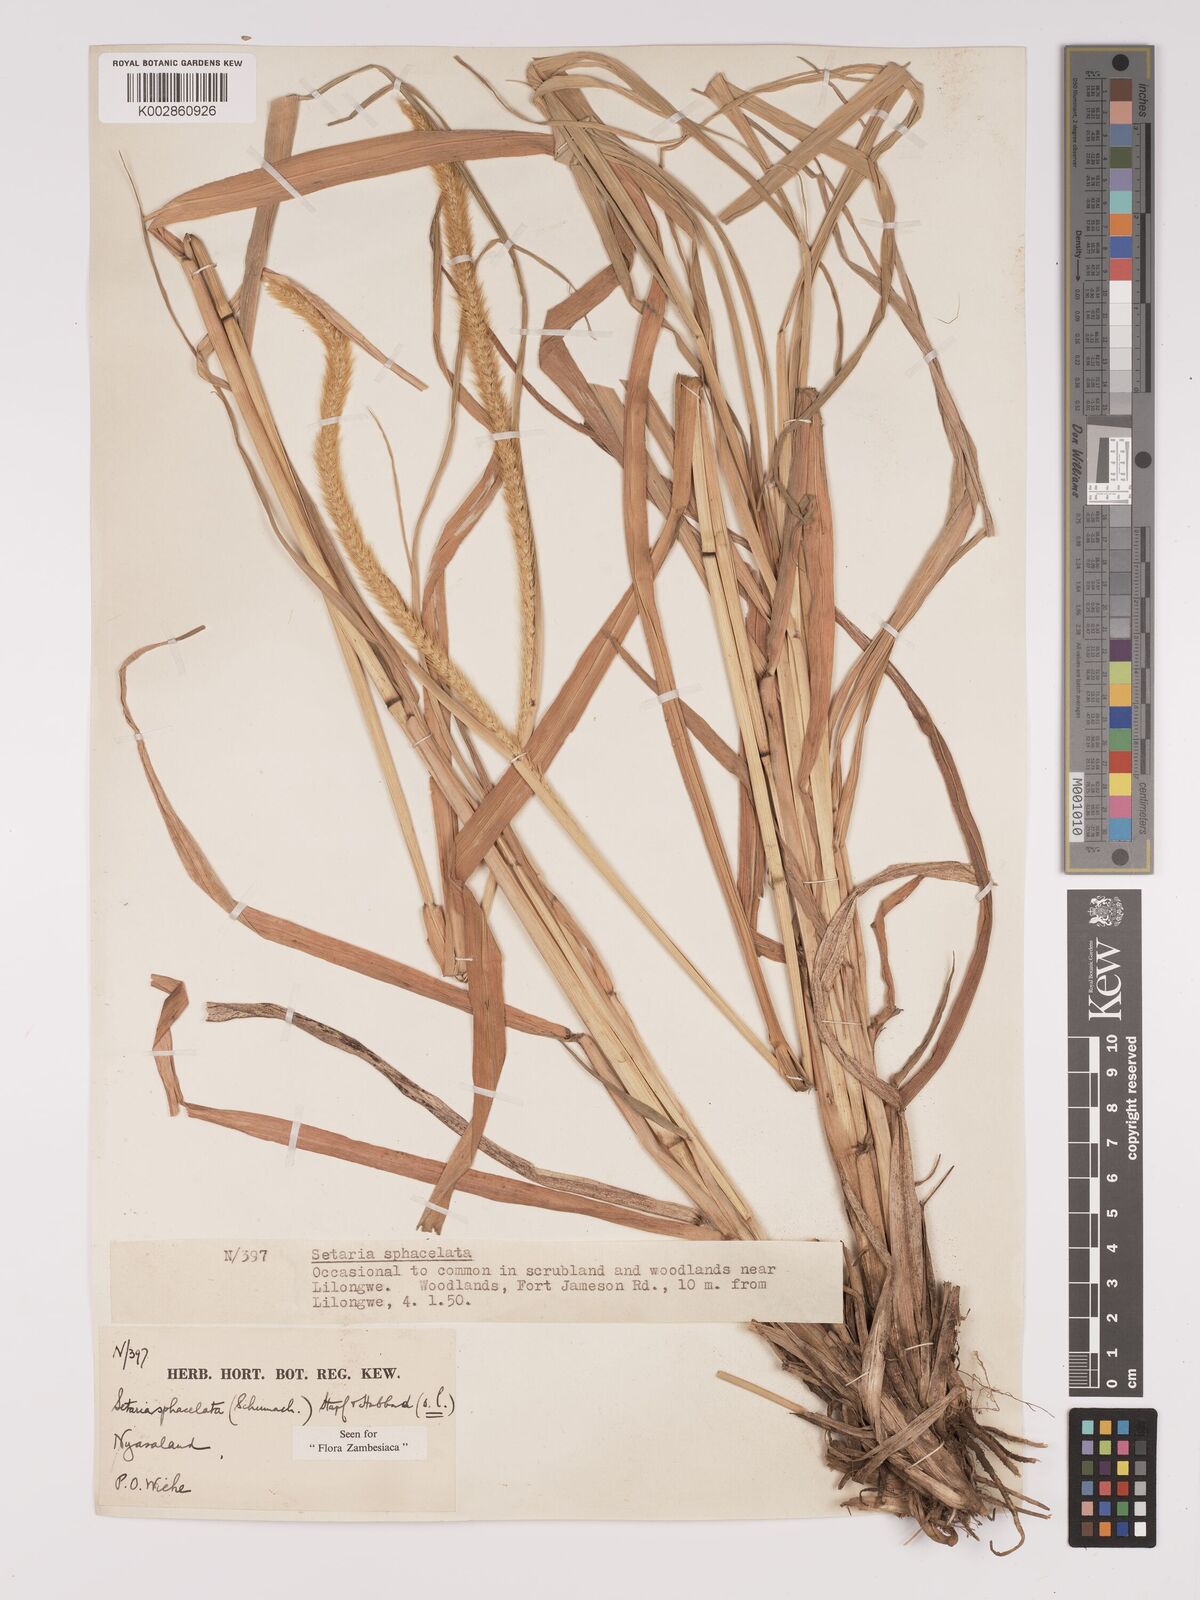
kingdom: Plantae
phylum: Tracheophyta
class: Liliopsida
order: Poales
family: Poaceae
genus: Setaria
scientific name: Setaria sphacelata
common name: African bristlegrass
